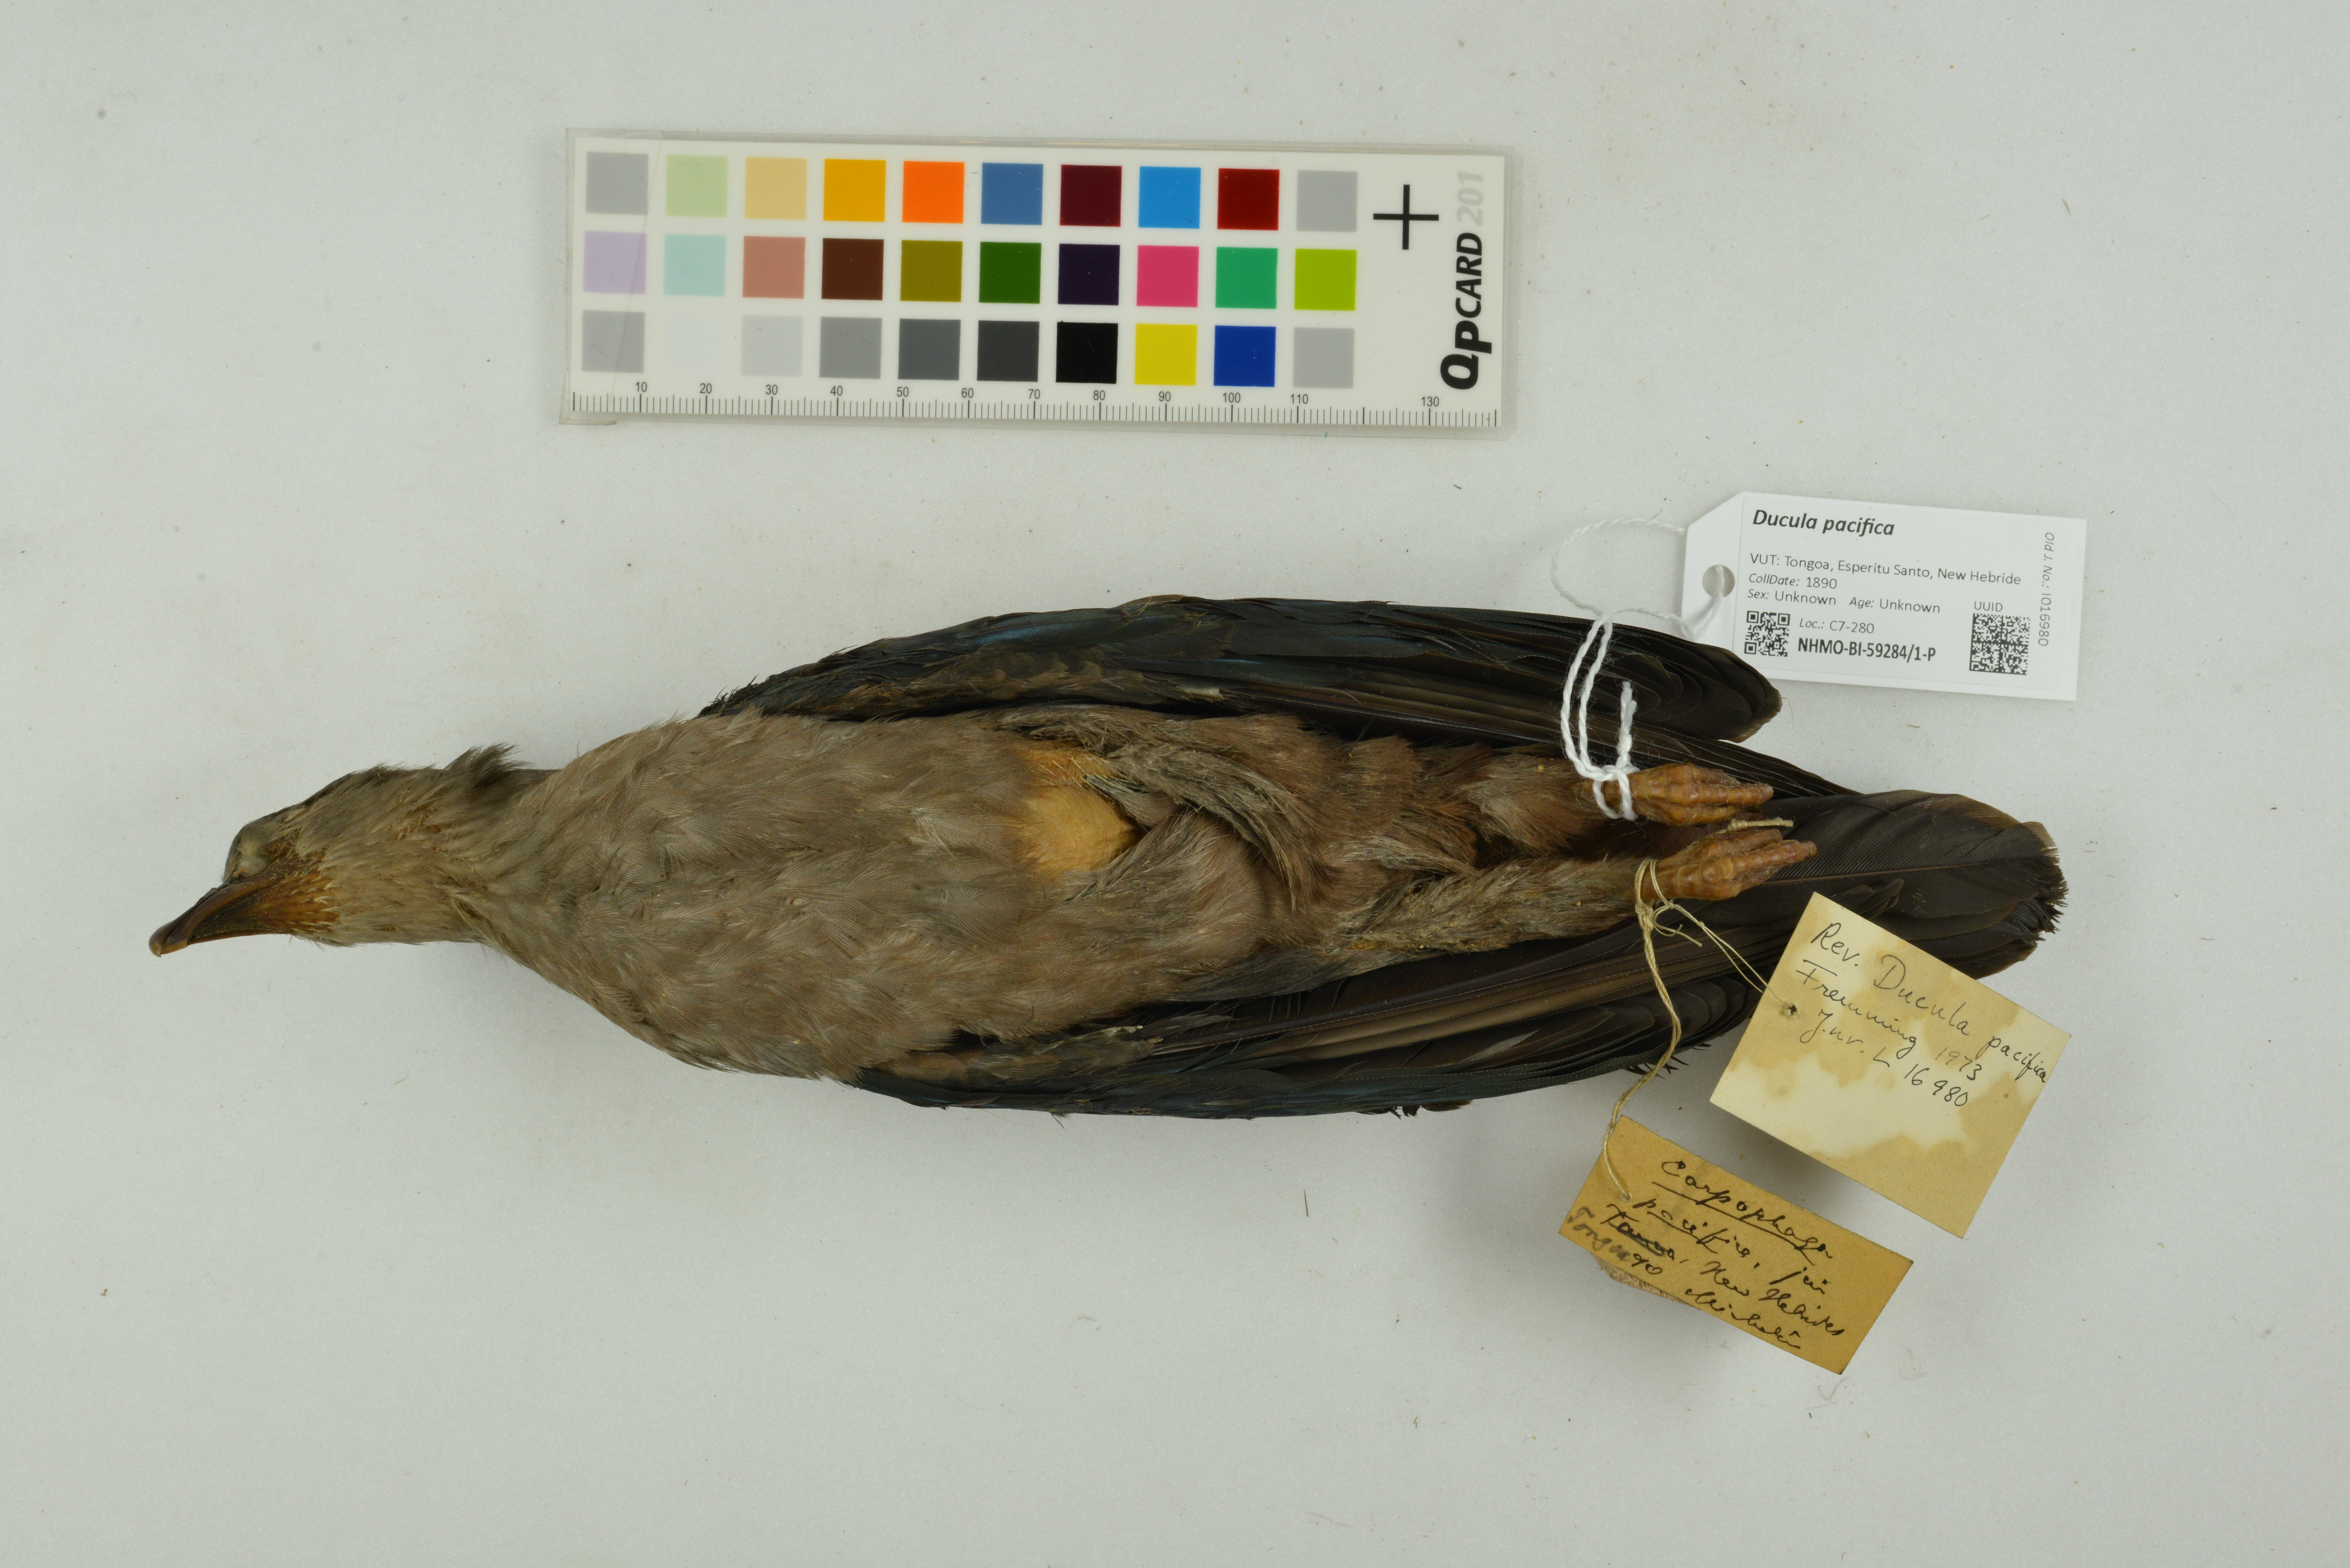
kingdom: Animalia
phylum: Chordata
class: Aves
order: Columbiformes
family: Columbidae
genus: Ducula
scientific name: Ducula pacifica
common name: Pacific imperial-pigeon
